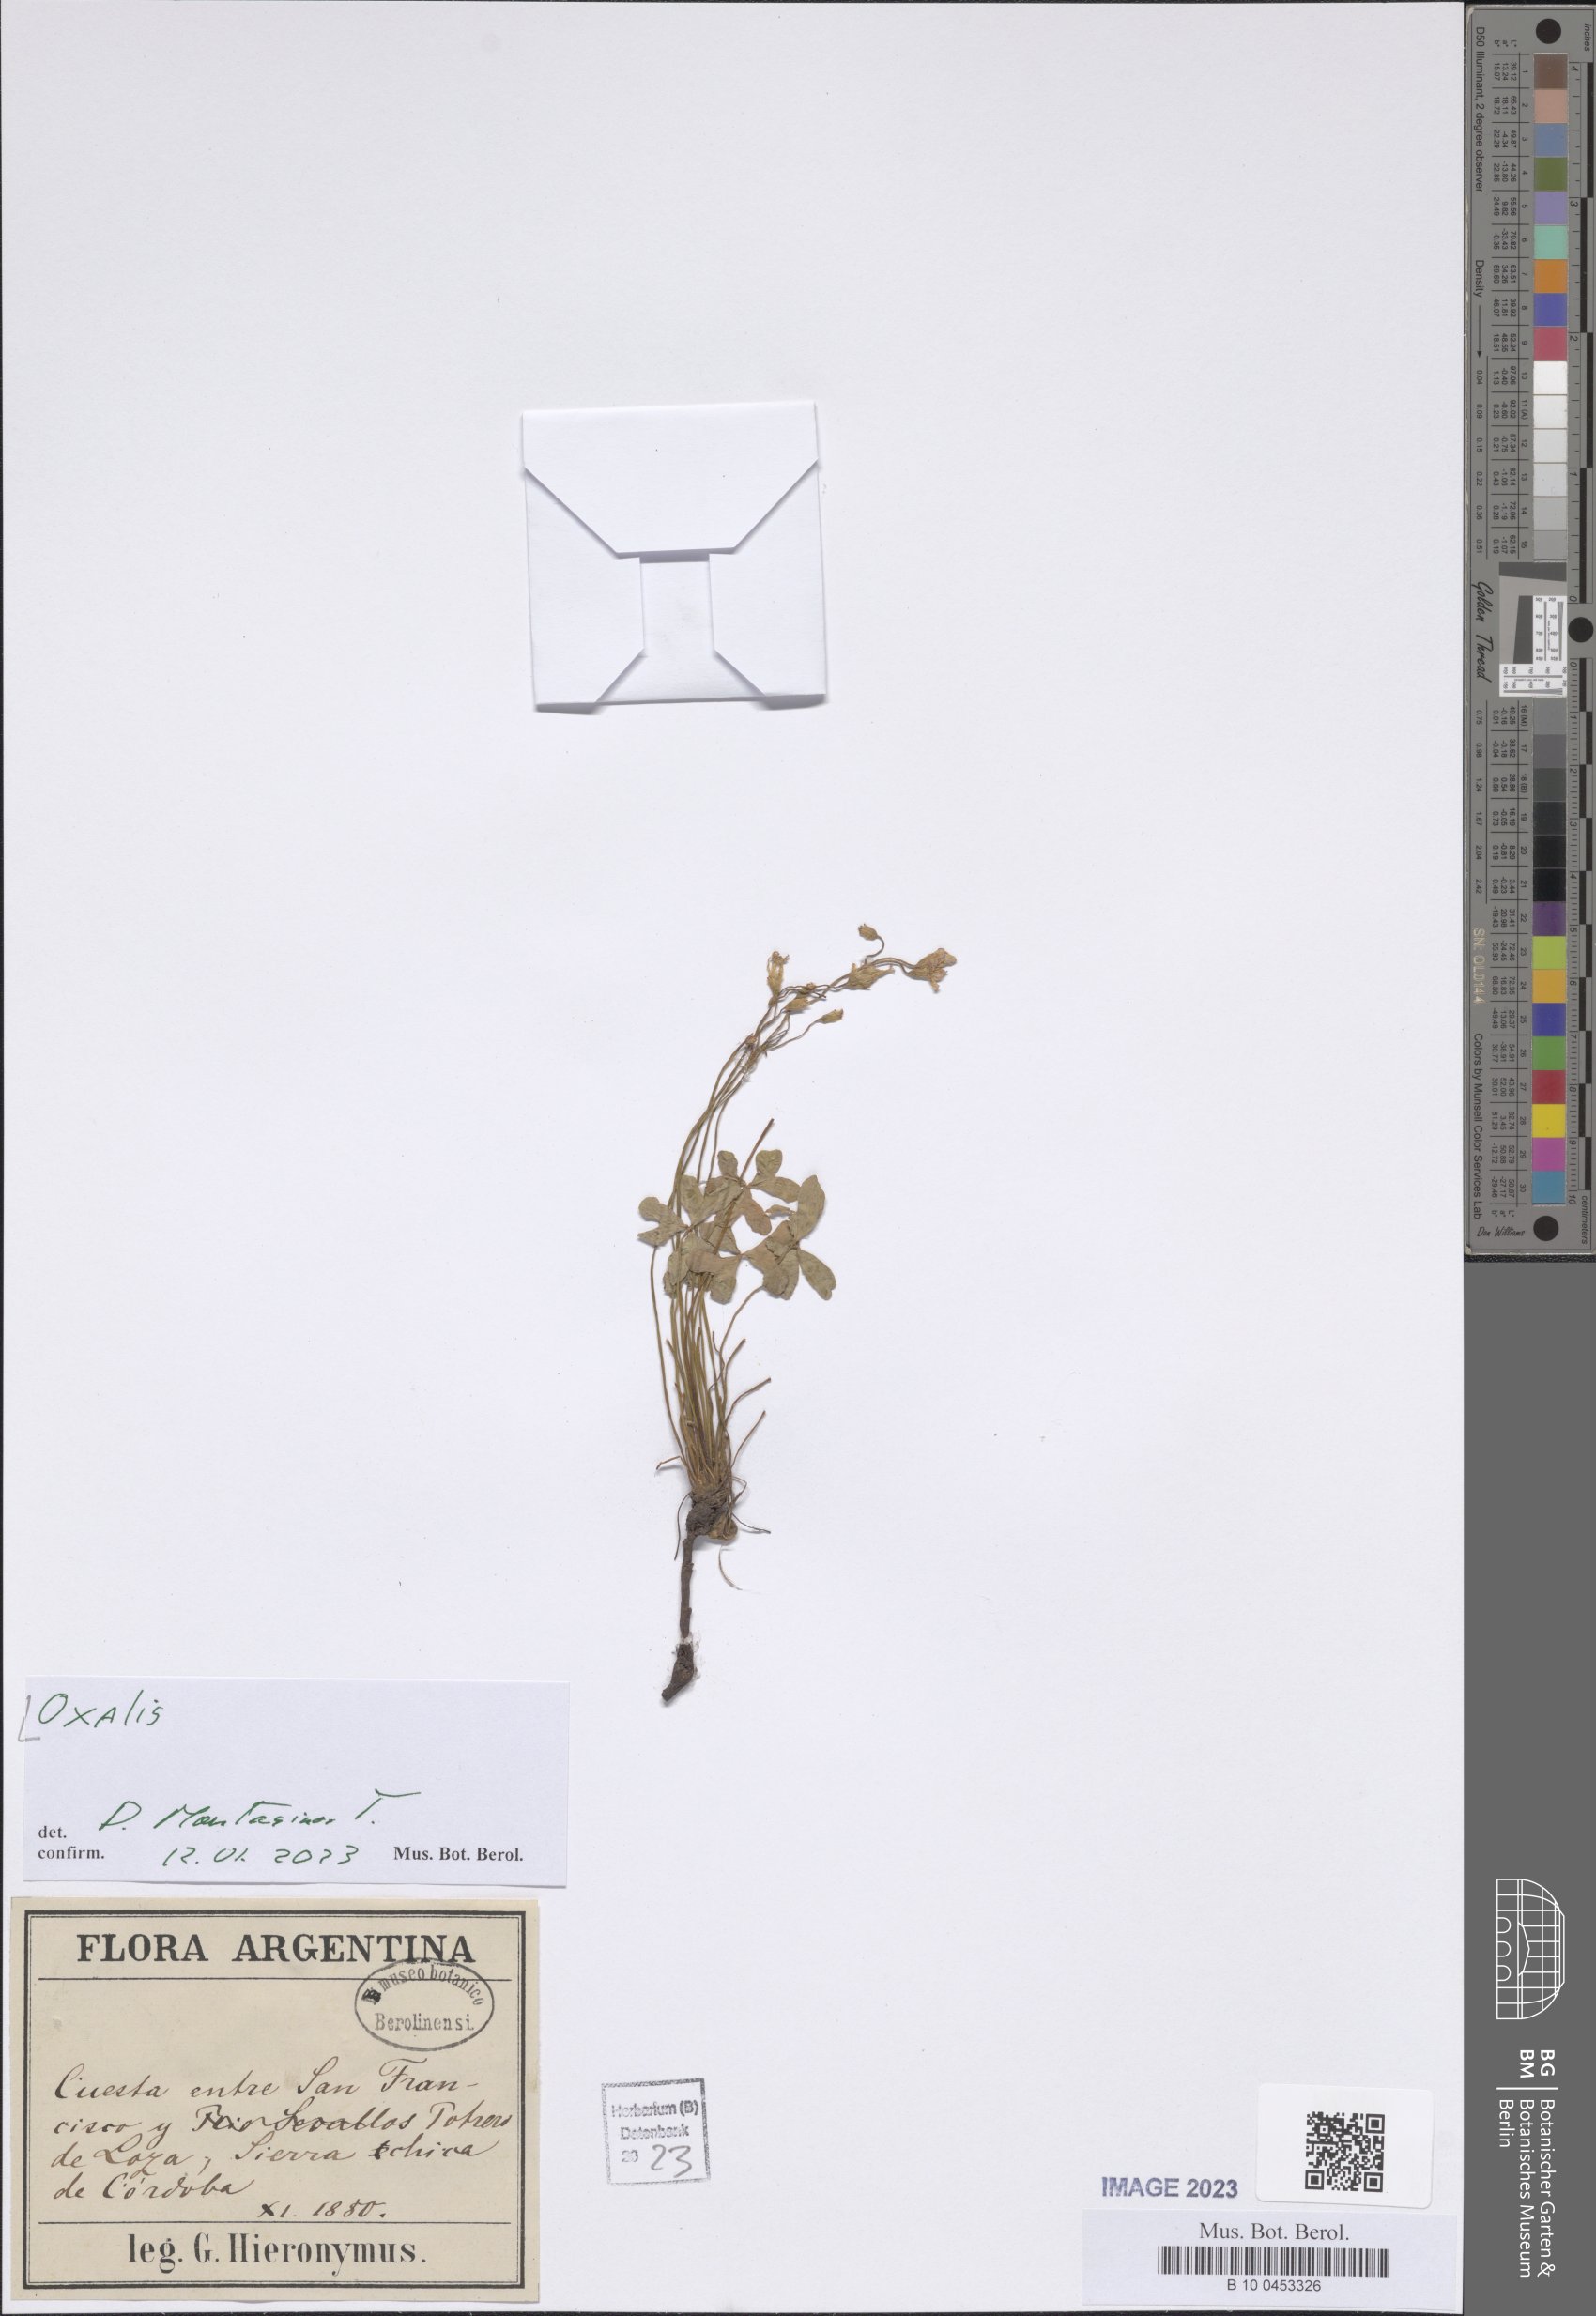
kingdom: Plantae
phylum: Tracheophyta
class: Magnoliopsida
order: Oxalidales
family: Oxalidaceae
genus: Oxalis
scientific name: Oxalis
